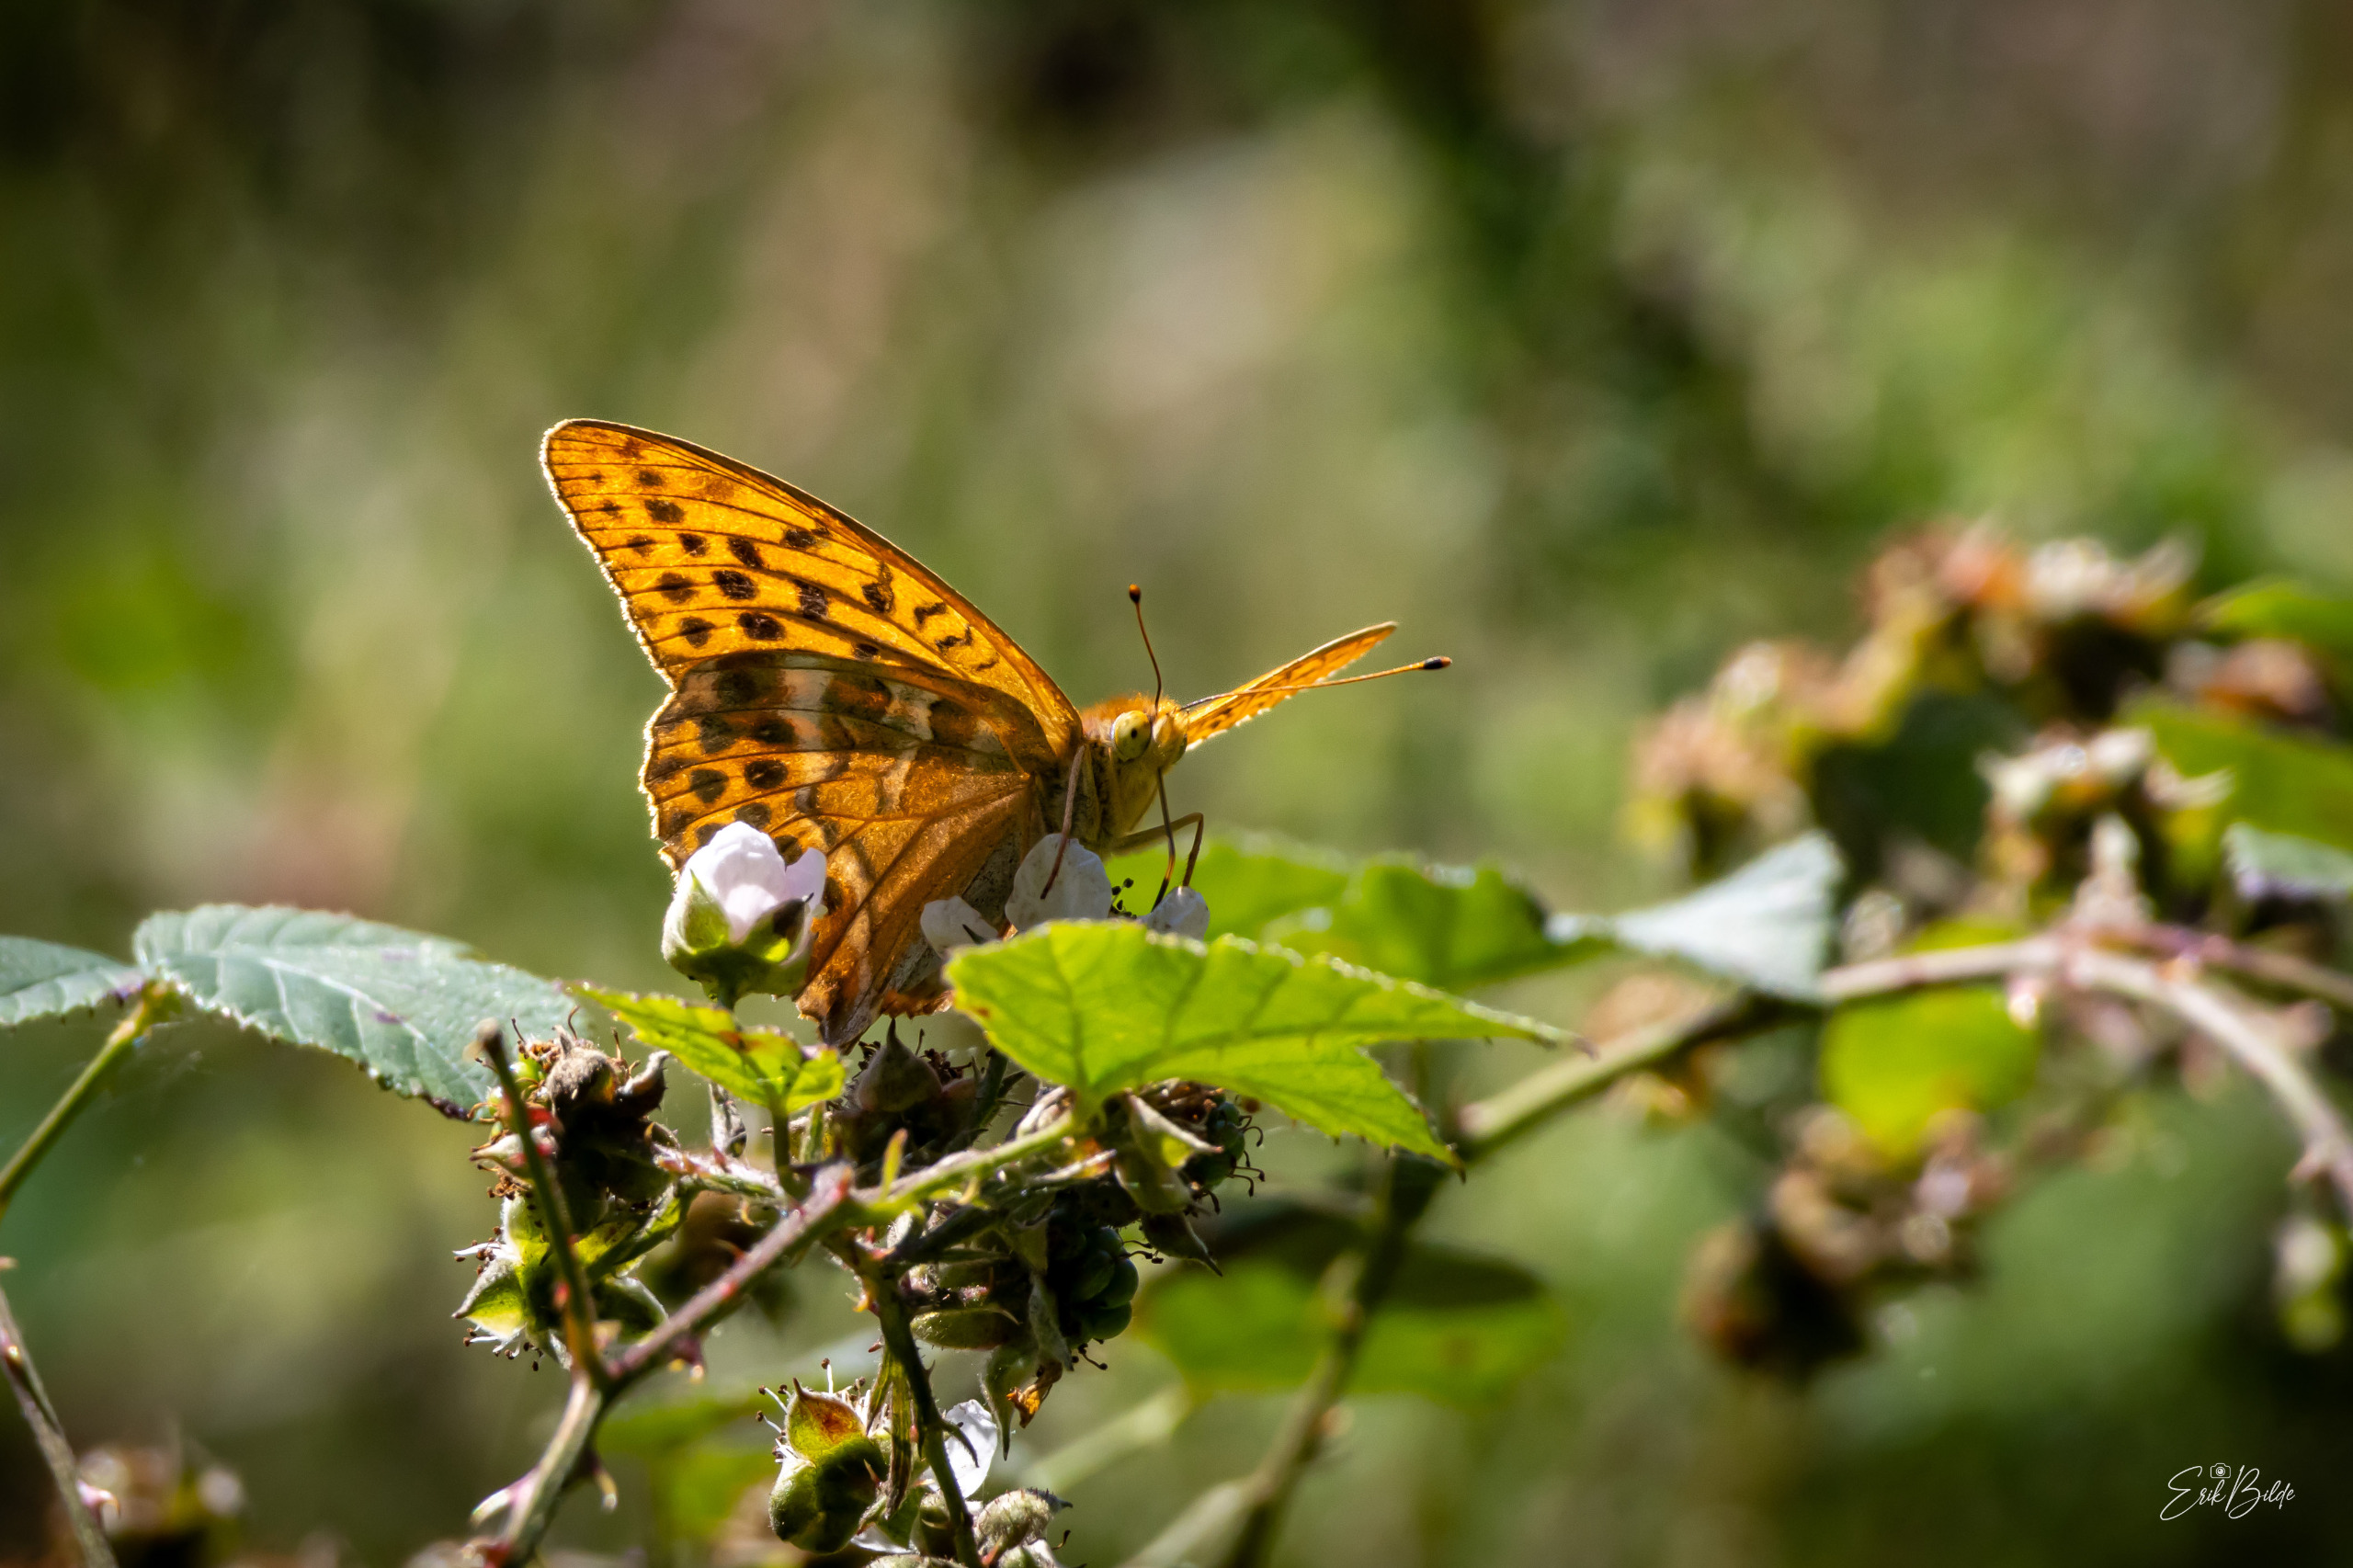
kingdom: Animalia
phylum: Arthropoda
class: Insecta
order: Lepidoptera
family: Nymphalidae
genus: Argynnis
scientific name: Argynnis paphia
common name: Kejserkåbe
